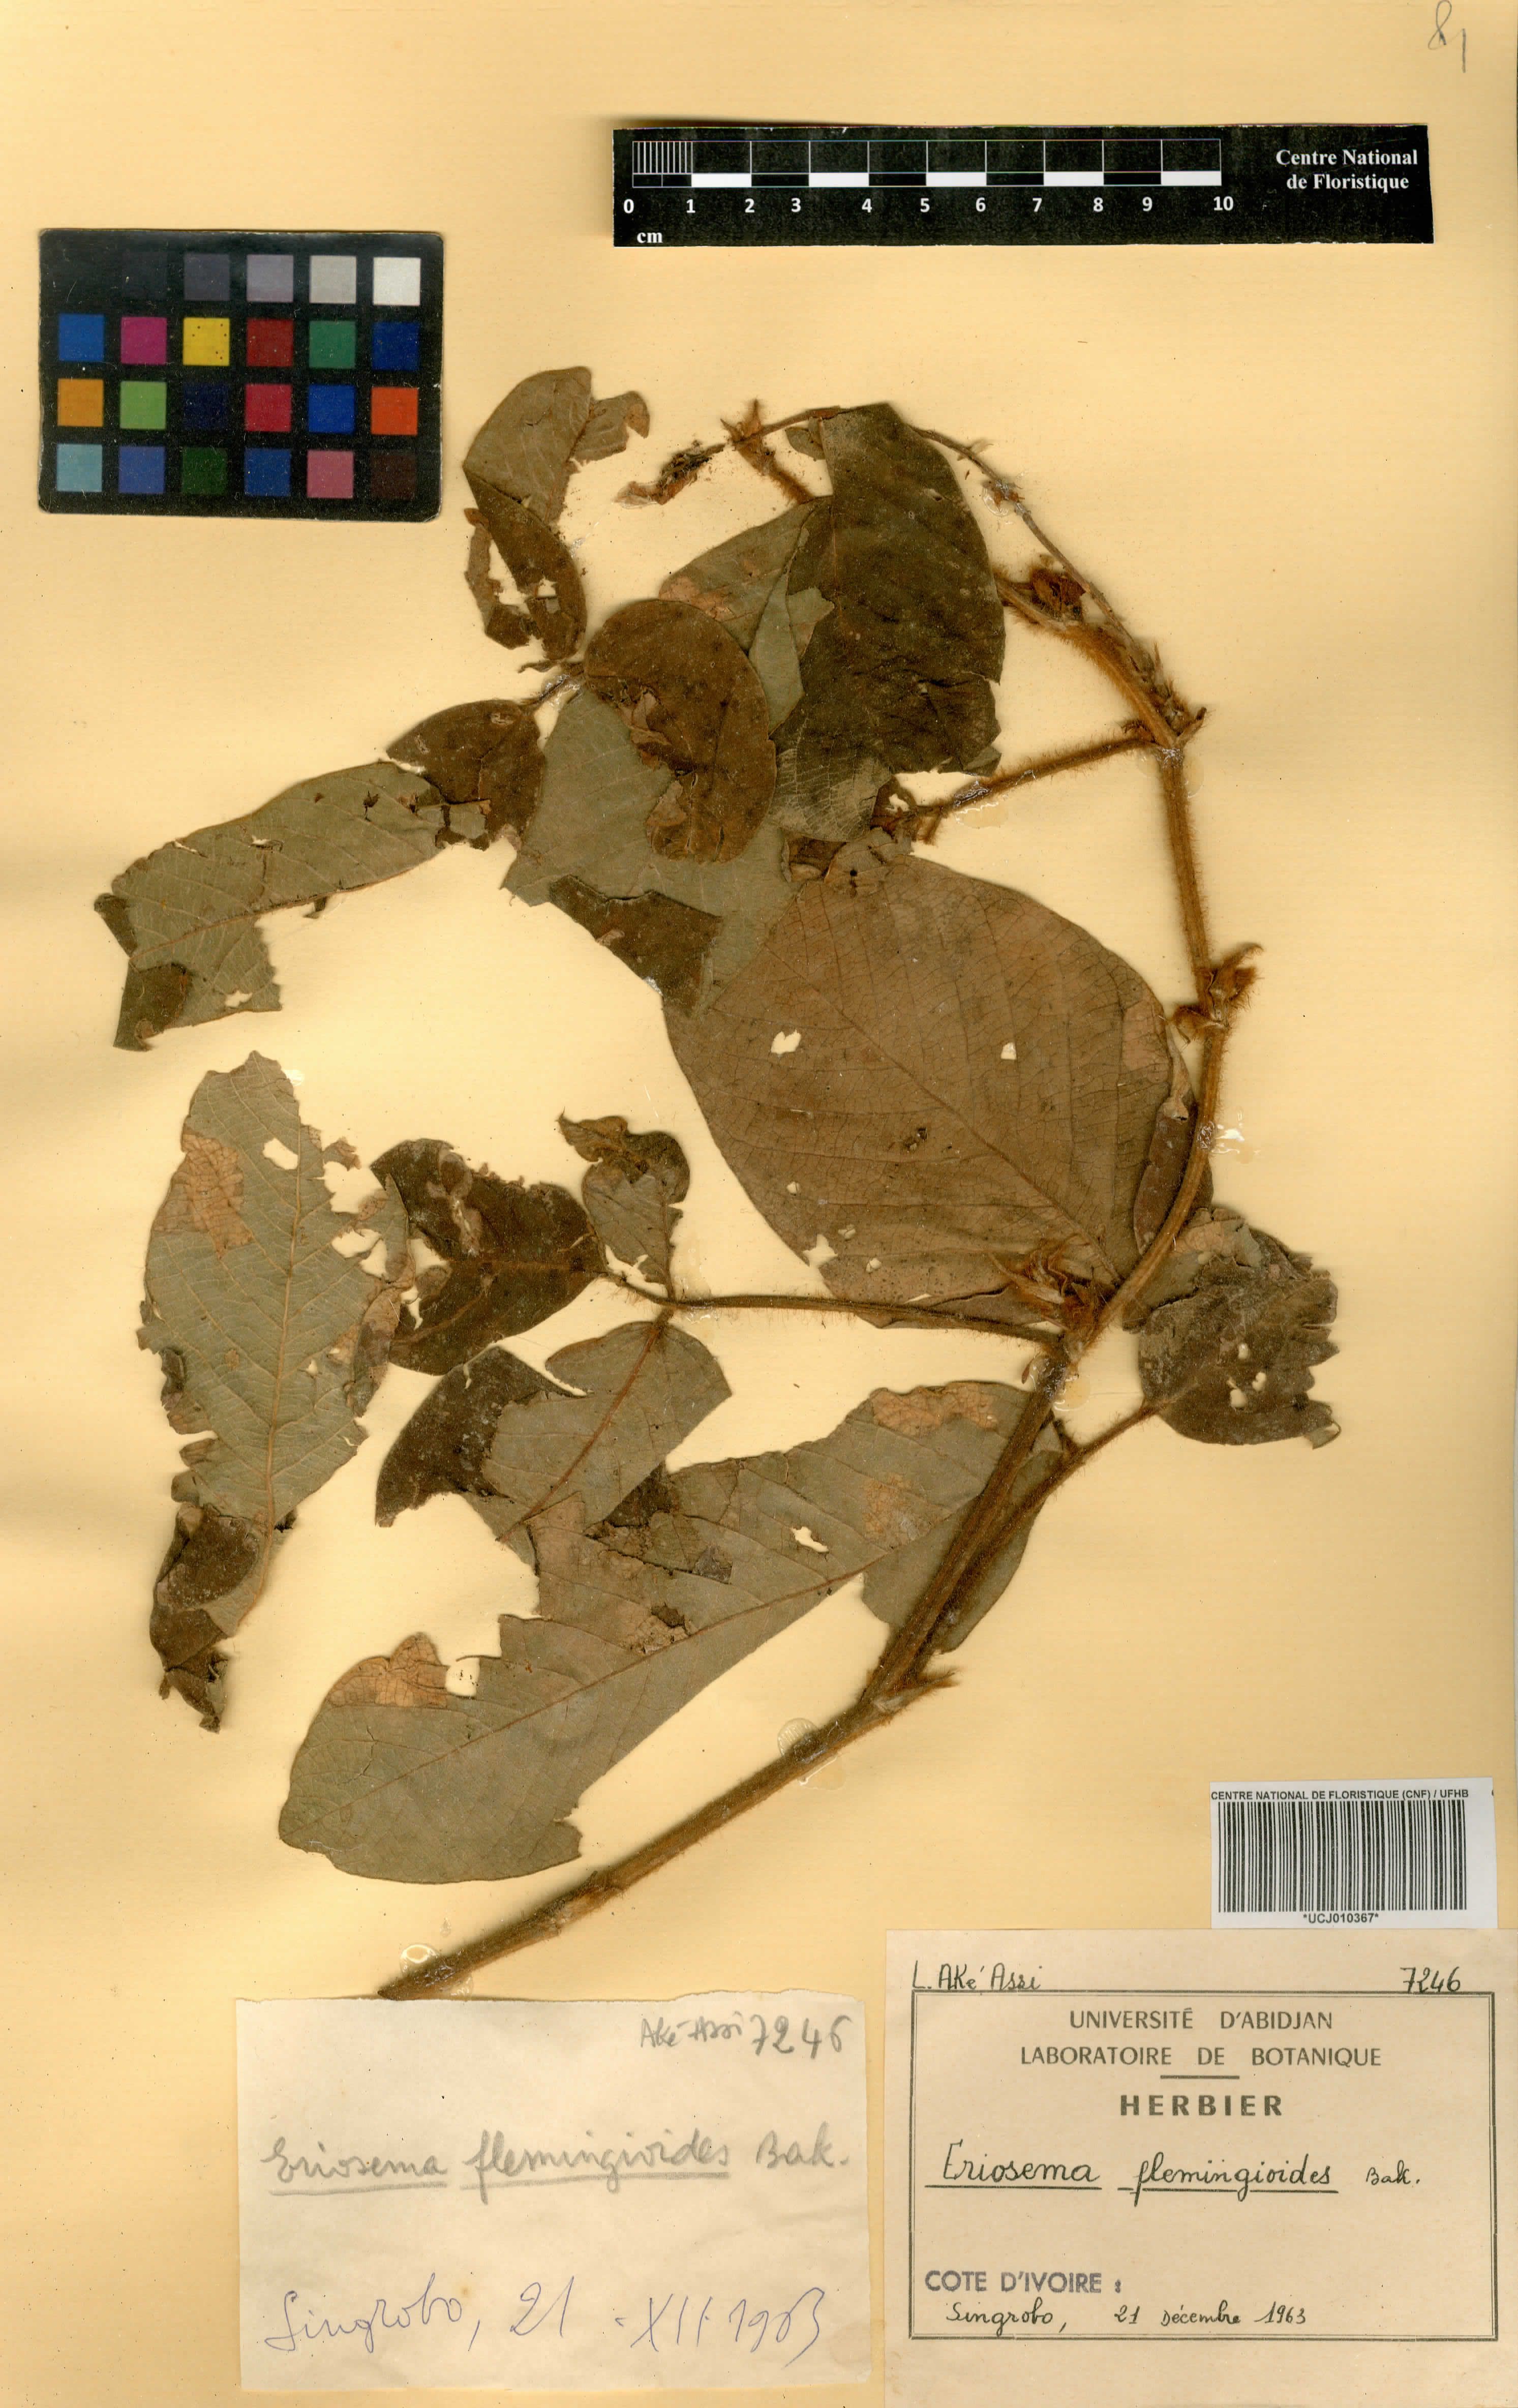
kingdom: Plantae
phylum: Tracheophyta
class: Magnoliopsida
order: Fabales
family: Fabaceae
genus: Eriosema
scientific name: Eriosema flemingioides
